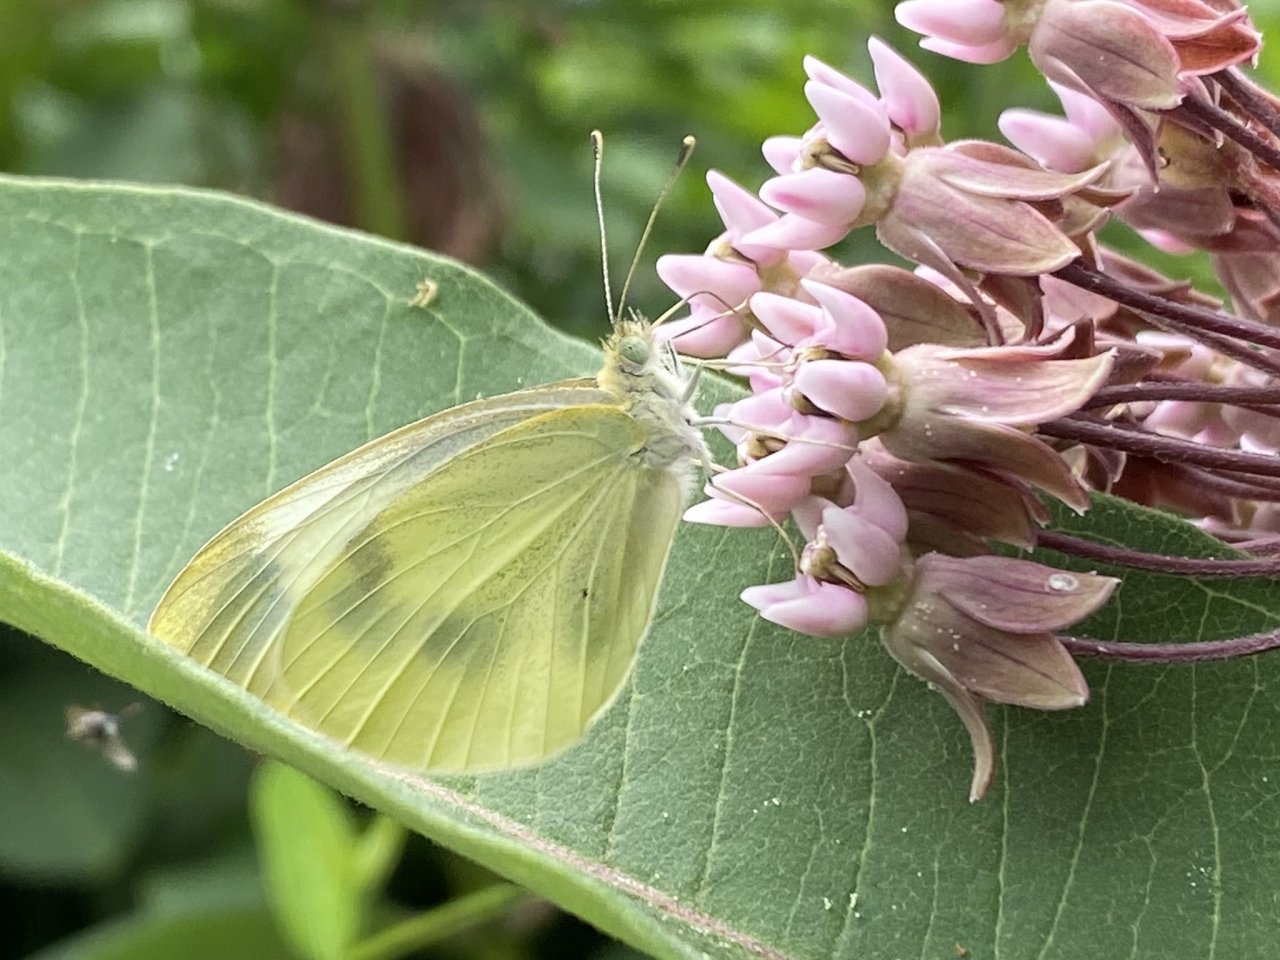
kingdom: Animalia
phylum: Arthropoda
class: Insecta
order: Lepidoptera
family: Pieridae
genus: Pieris
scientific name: Pieris rapae
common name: Cabbage White
